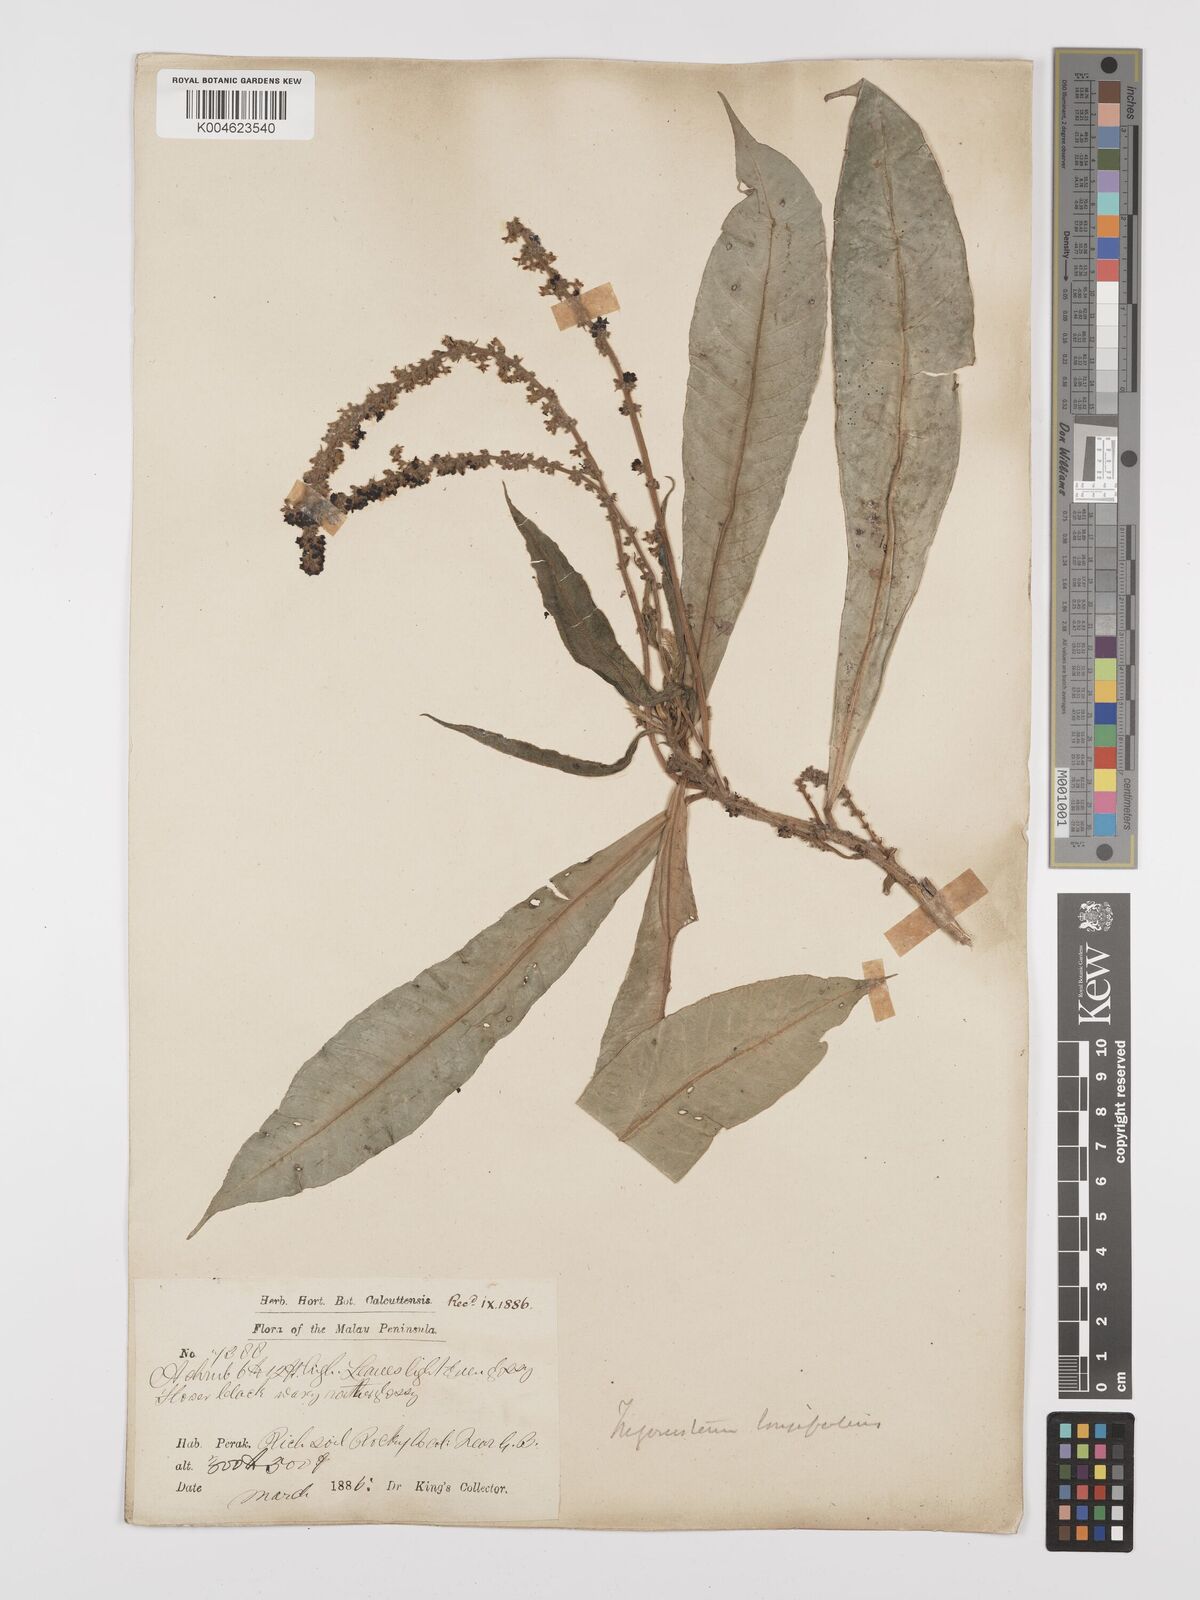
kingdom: Plantae
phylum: Tracheophyta
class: Magnoliopsida
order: Malpighiales
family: Euphorbiaceae
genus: Trigonostemon
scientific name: Trigonostemon longifolius
